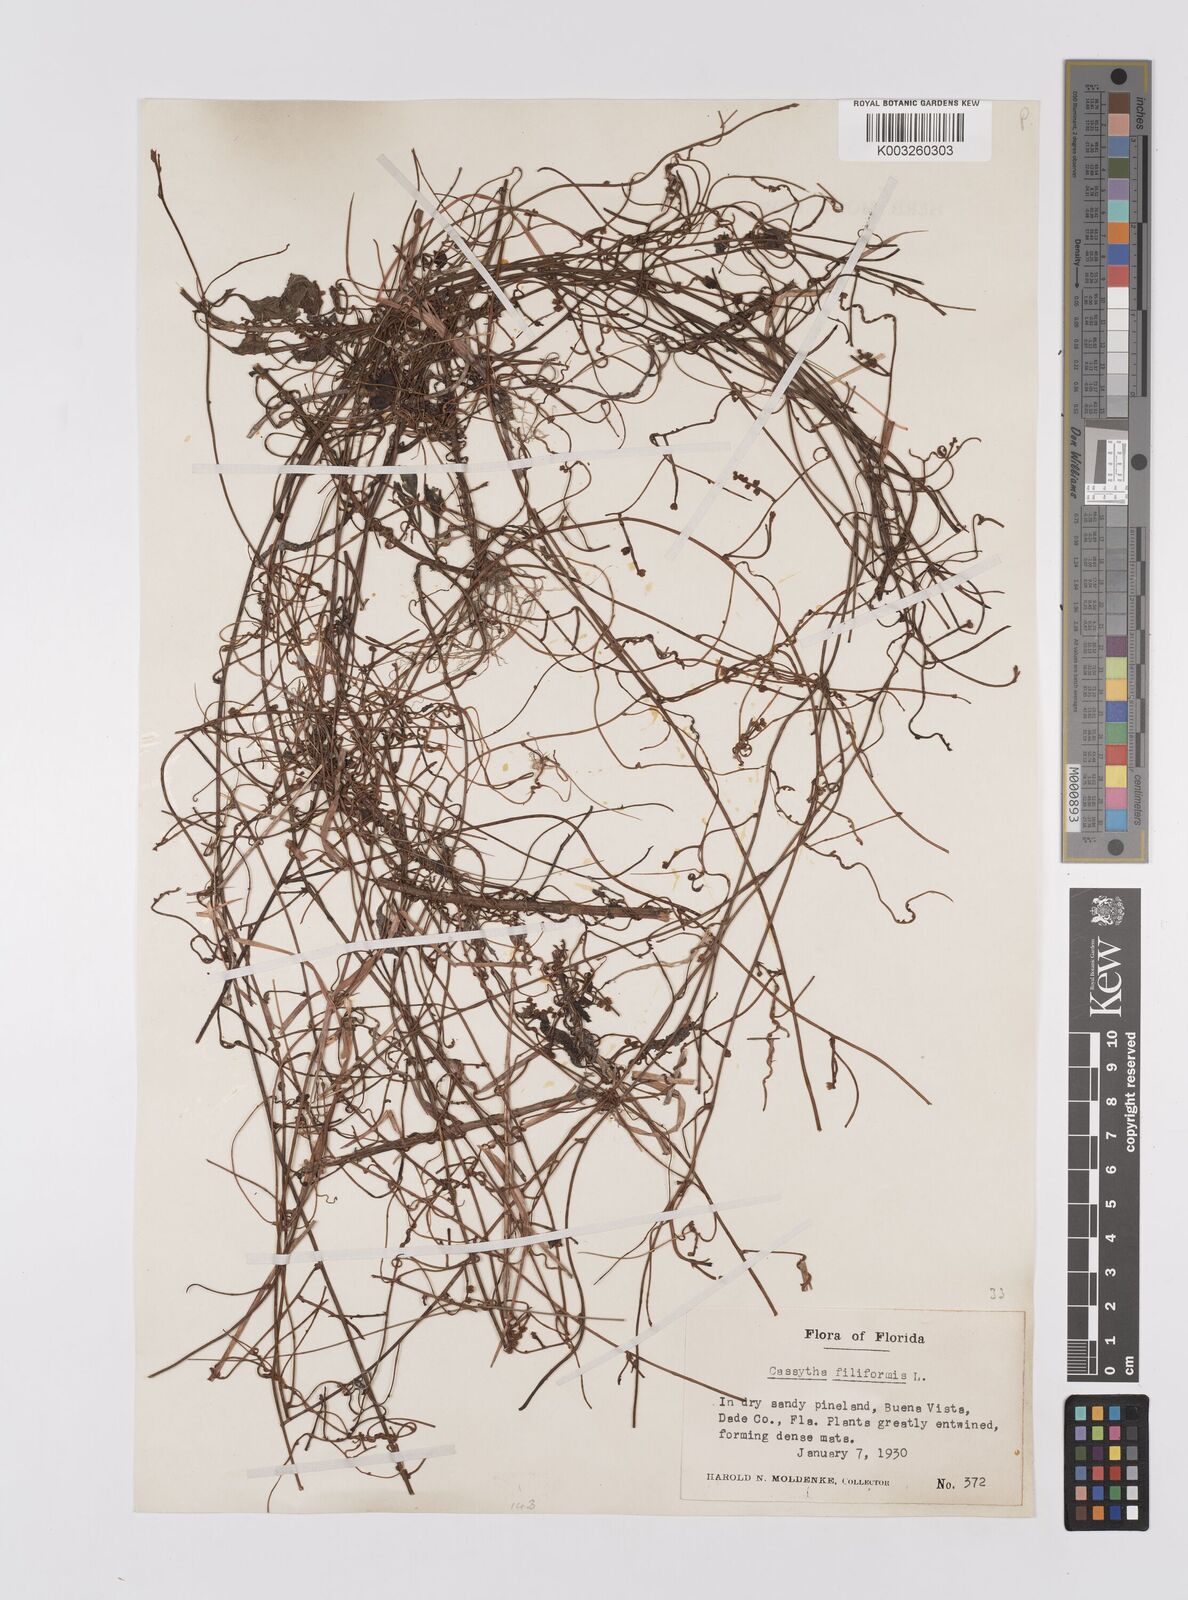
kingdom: Plantae
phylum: Tracheophyta
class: Magnoliopsida
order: Laurales
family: Lauraceae
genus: Cassytha
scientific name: Cassytha filiformis
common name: Dodder-laurel
